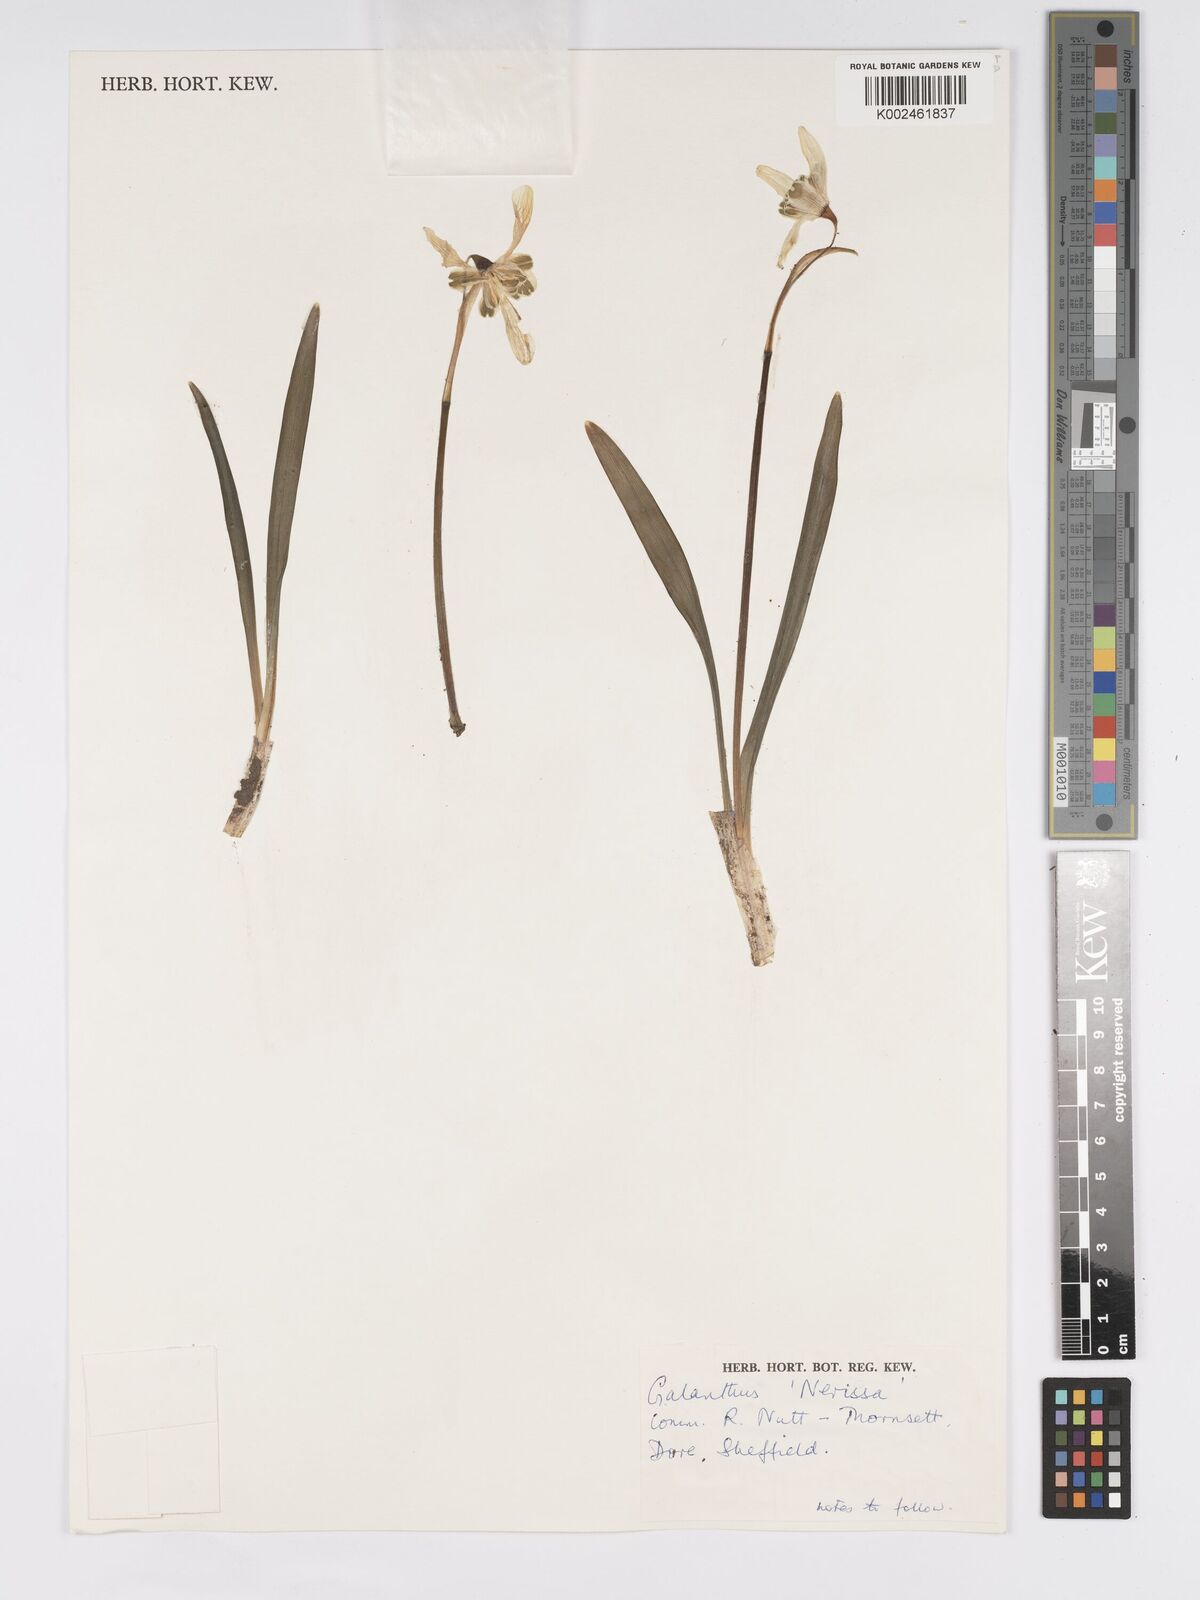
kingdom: Plantae
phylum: Tracheophyta
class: Liliopsida
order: Asparagales
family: Amaryllidaceae
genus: Galanthus
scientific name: Galanthus
